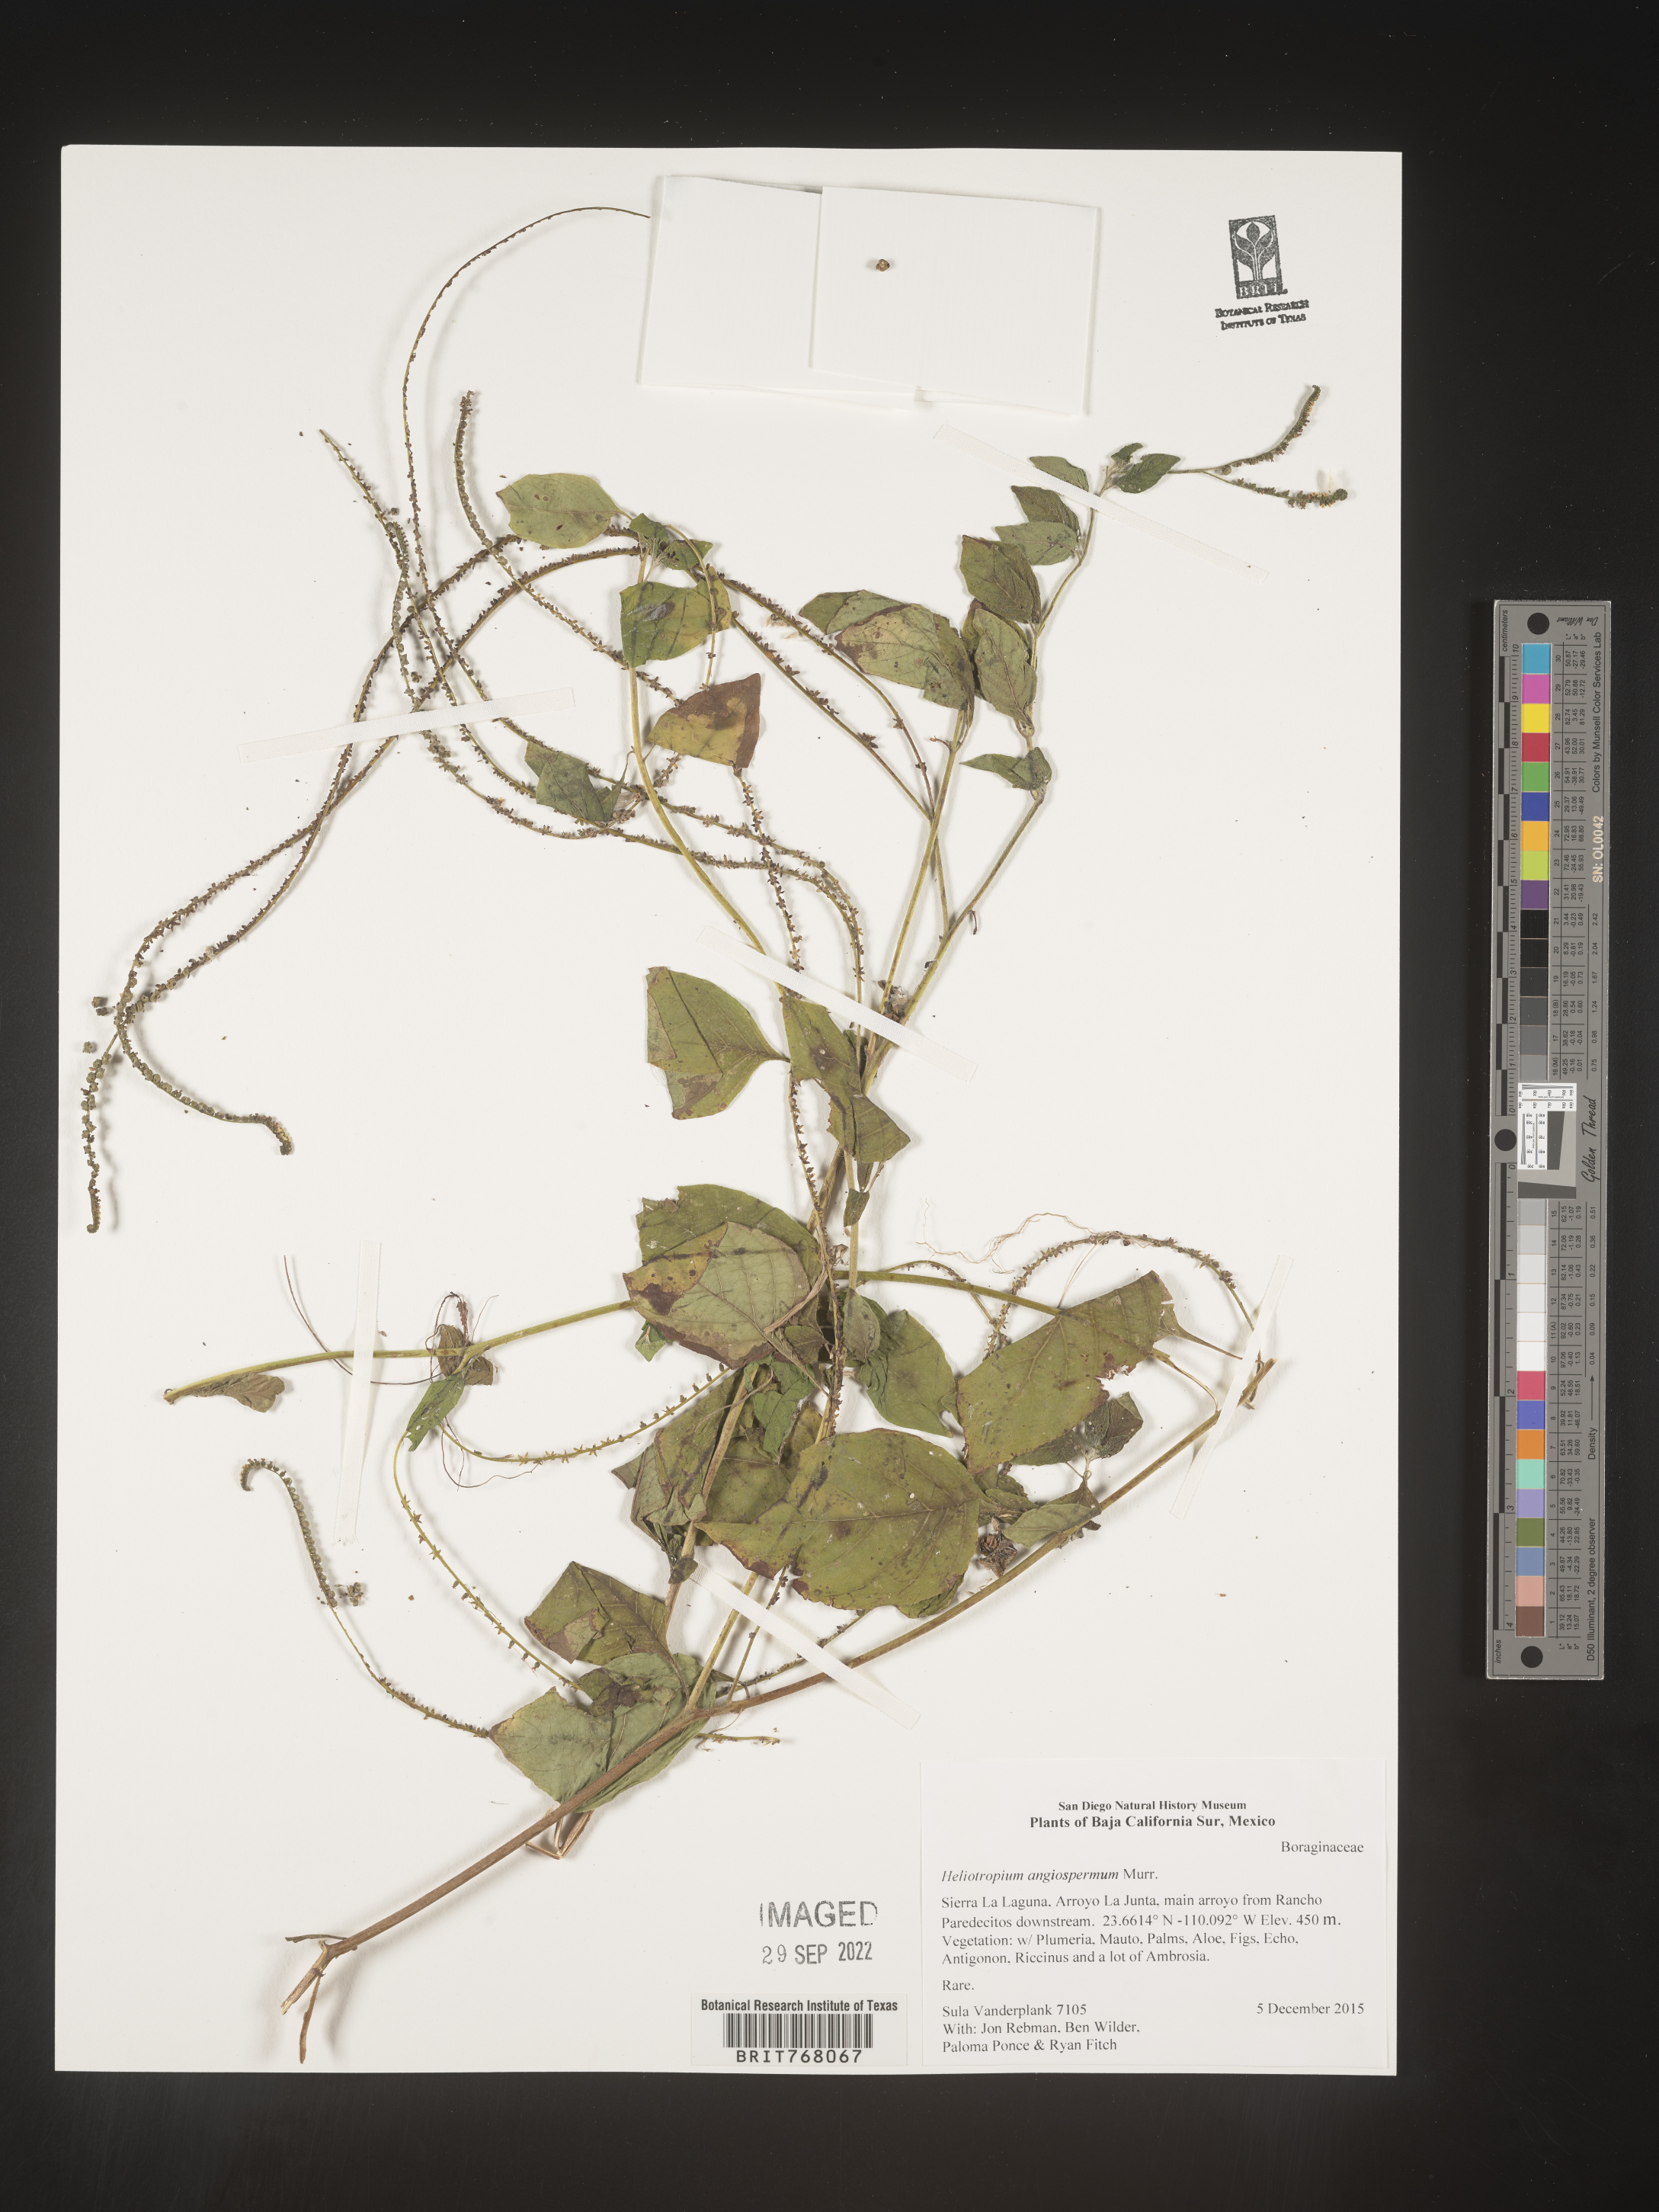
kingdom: Plantae
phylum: Tracheophyta
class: Magnoliopsida
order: Boraginales
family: Heliotropiaceae
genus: Heliotropium
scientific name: Heliotropium
